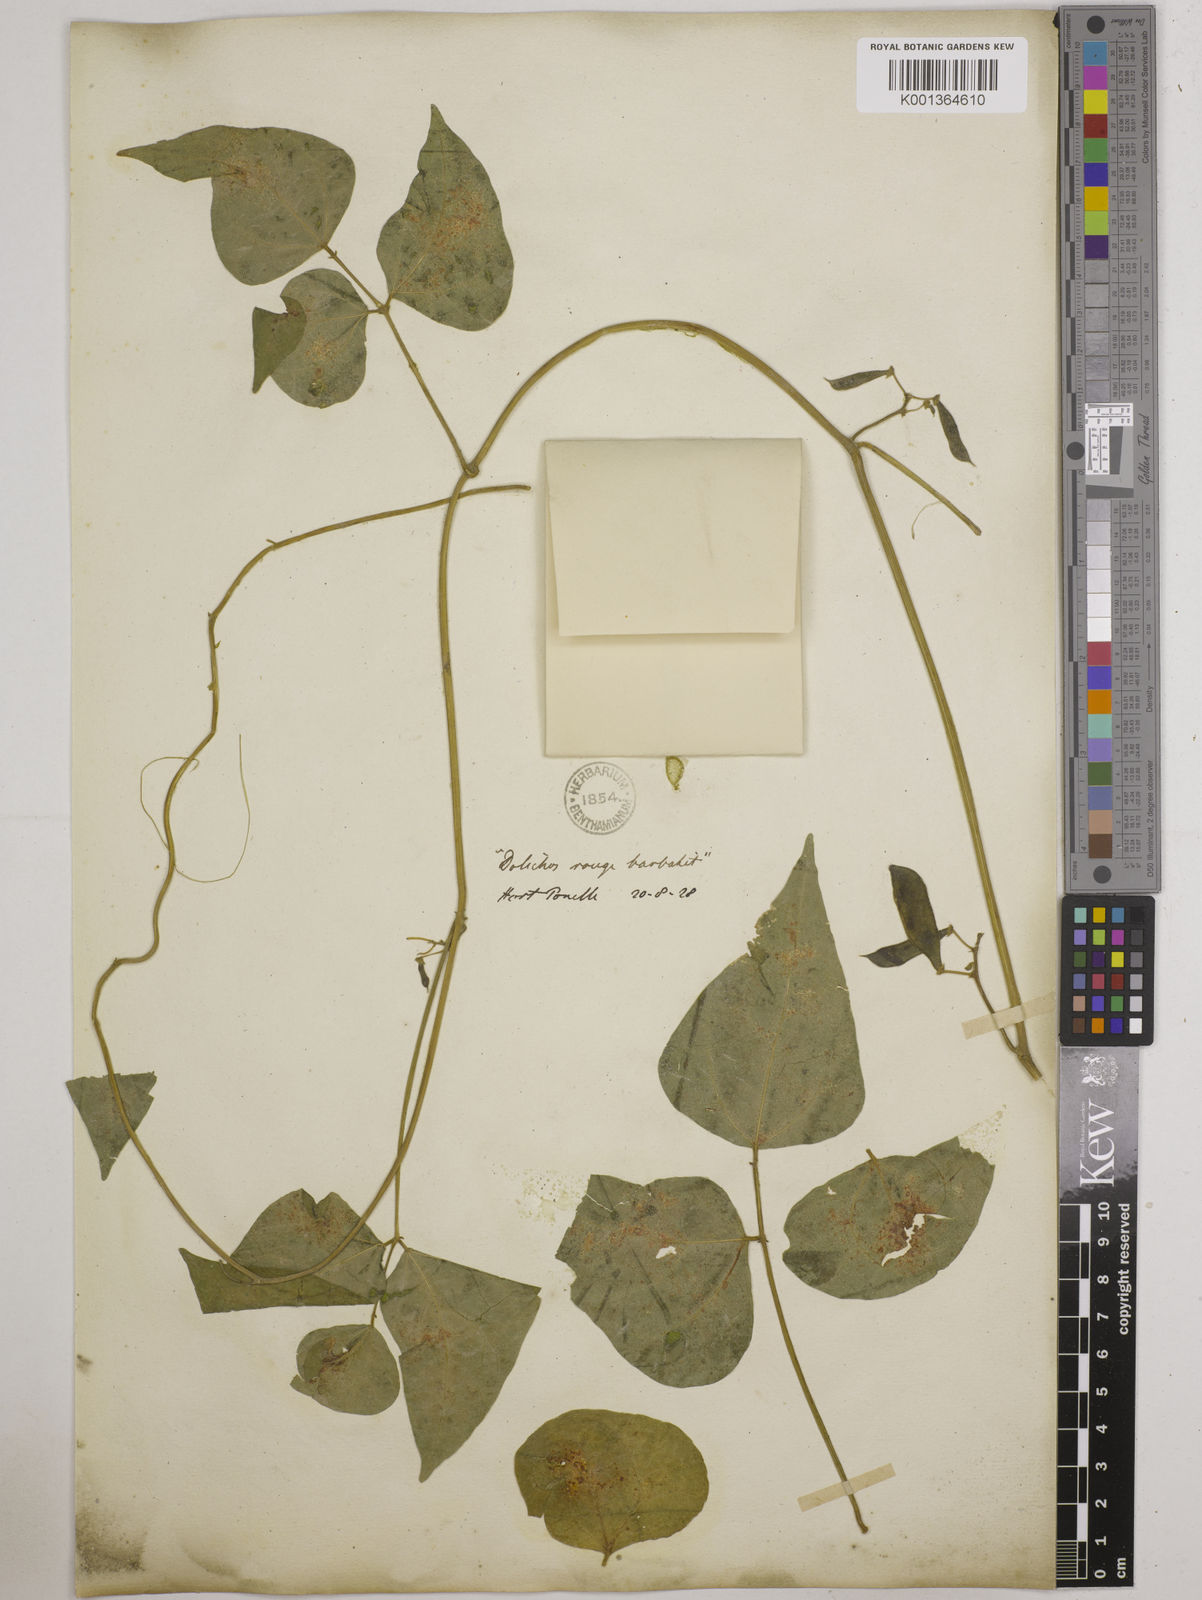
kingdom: Plantae
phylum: Tracheophyta
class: Magnoliopsida
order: Fabales
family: Fabaceae
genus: Phaseolus
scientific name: Phaseolus lunatus
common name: Sieva bean
